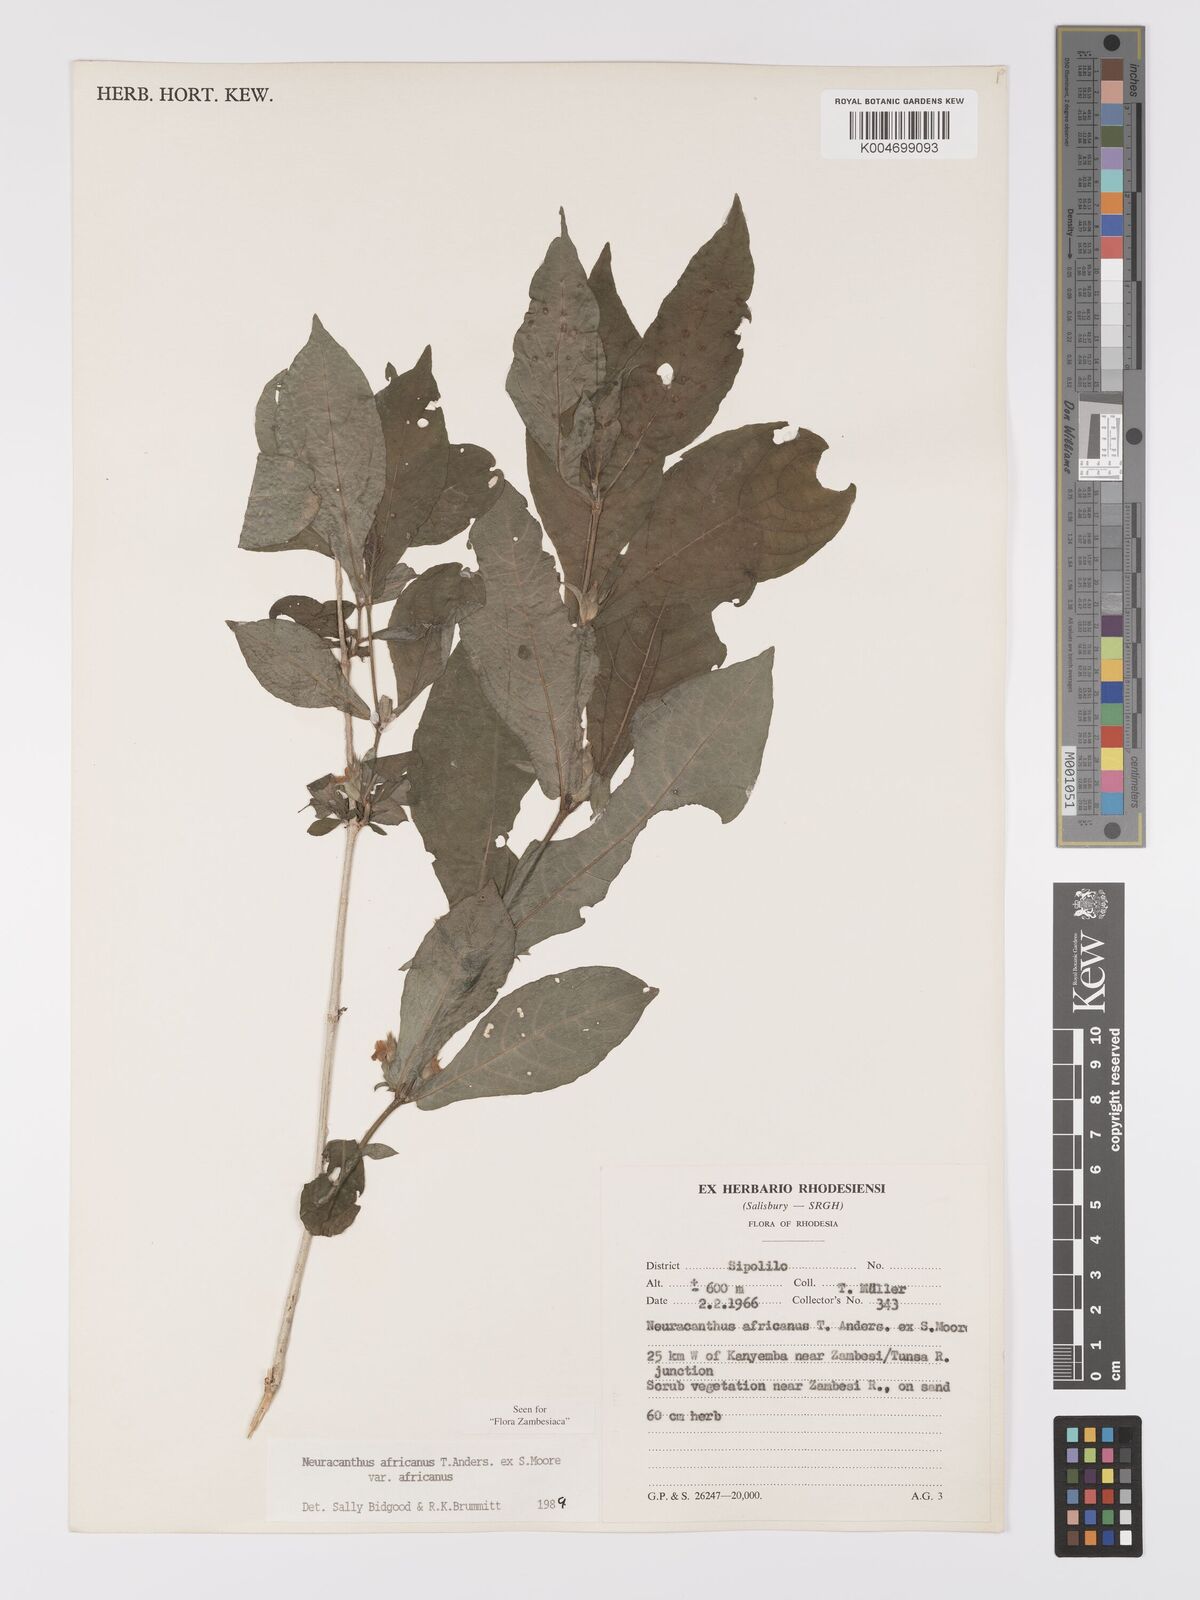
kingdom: Plantae
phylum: Tracheophyta
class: Magnoliopsida
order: Lamiales
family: Acanthaceae
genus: Neuracanthus
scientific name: Neuracanthus africanus
